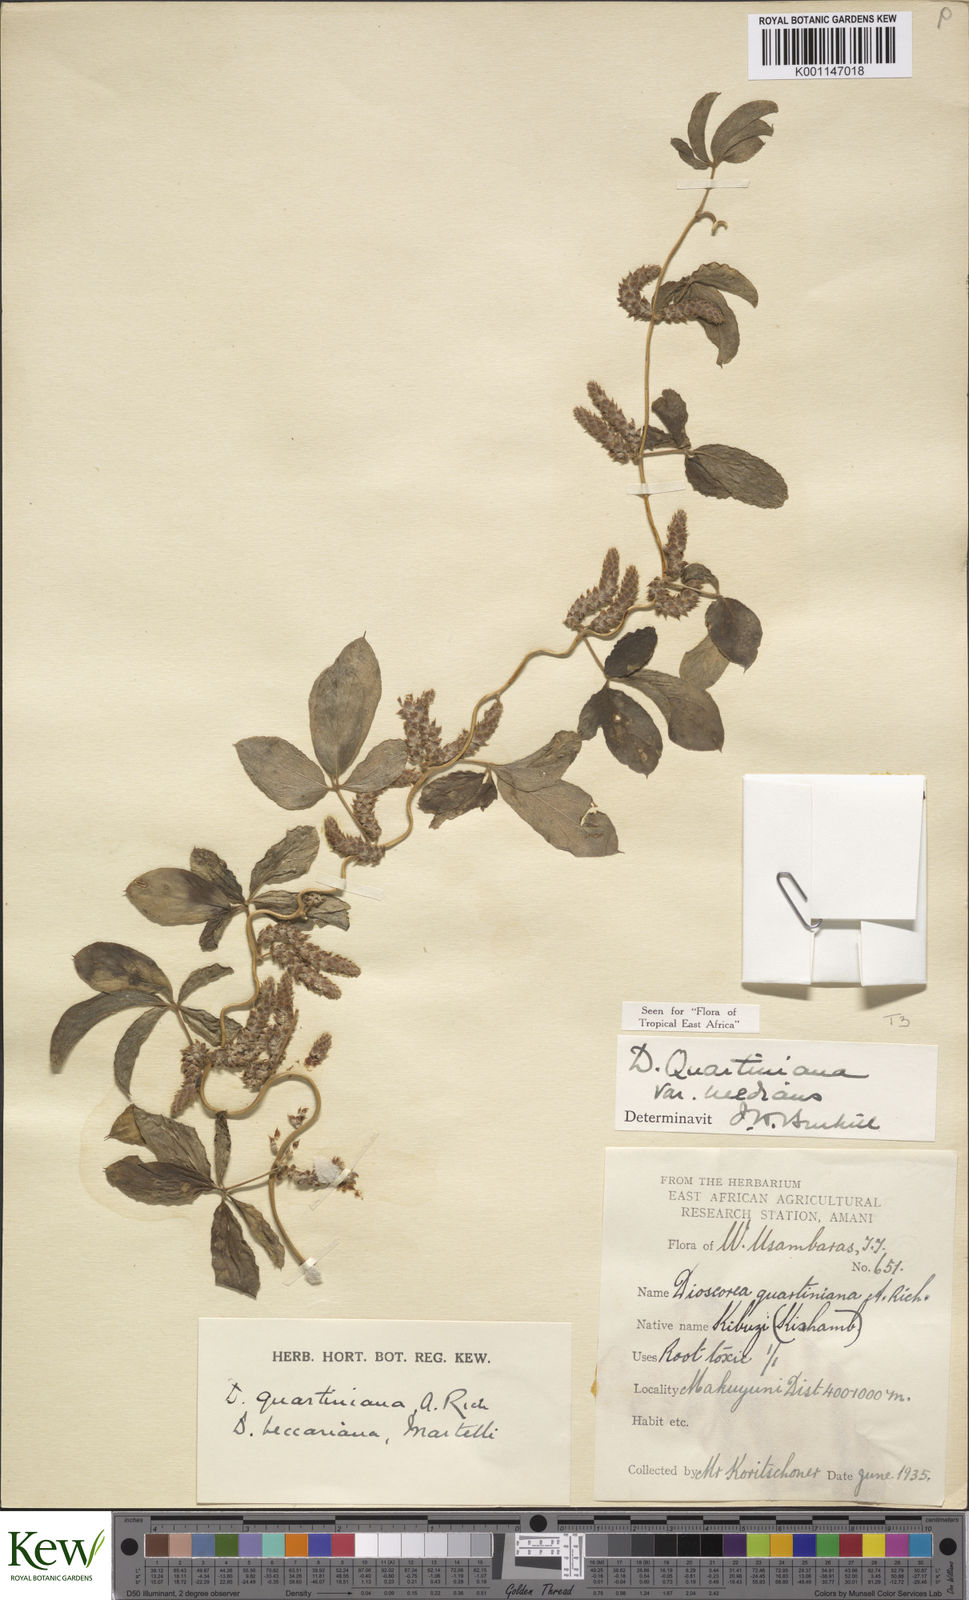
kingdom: Plantae
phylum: Tracheophyta
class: Liliopsida
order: Dioscoreales
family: Dioscoreaceae
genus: Dioscorea
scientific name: Dioscorea quartiniana
